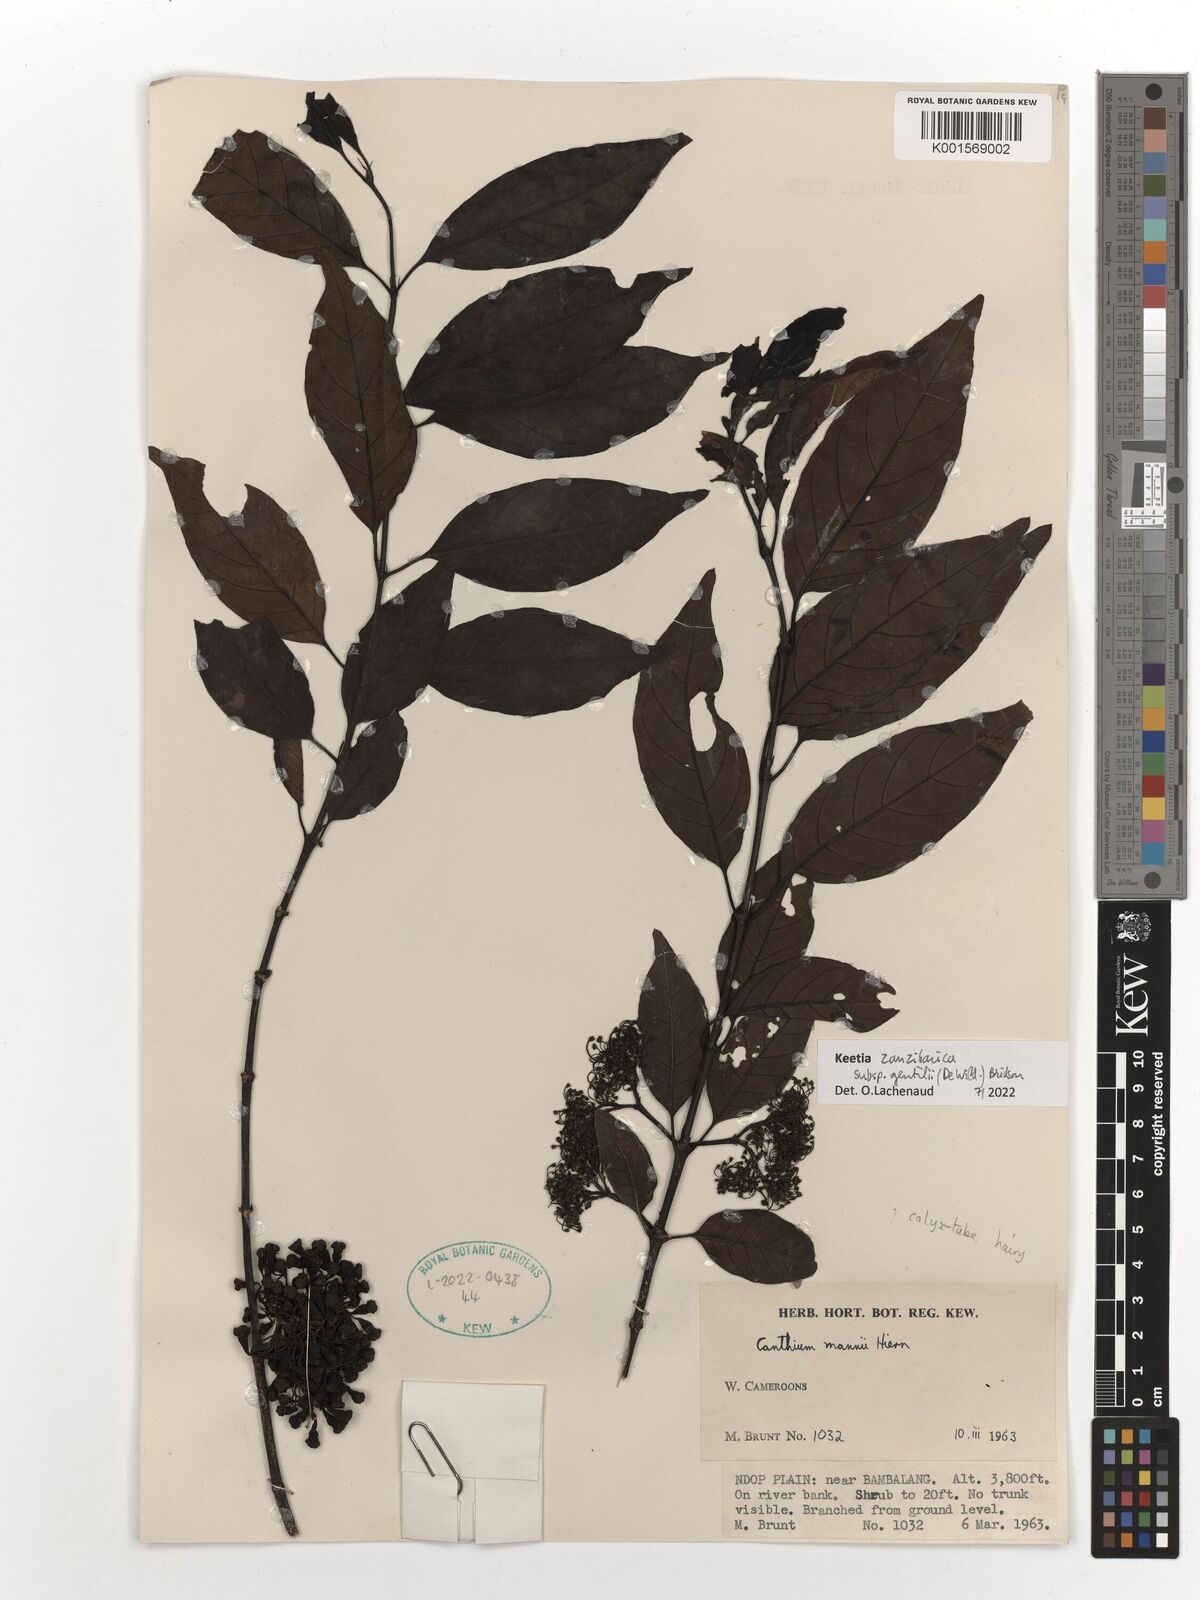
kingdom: Plantae
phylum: Tracheophyta
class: Magnoliopsida
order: Gentianales
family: Rubiaceae
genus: Keetia
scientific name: Keetia zanzibarica
